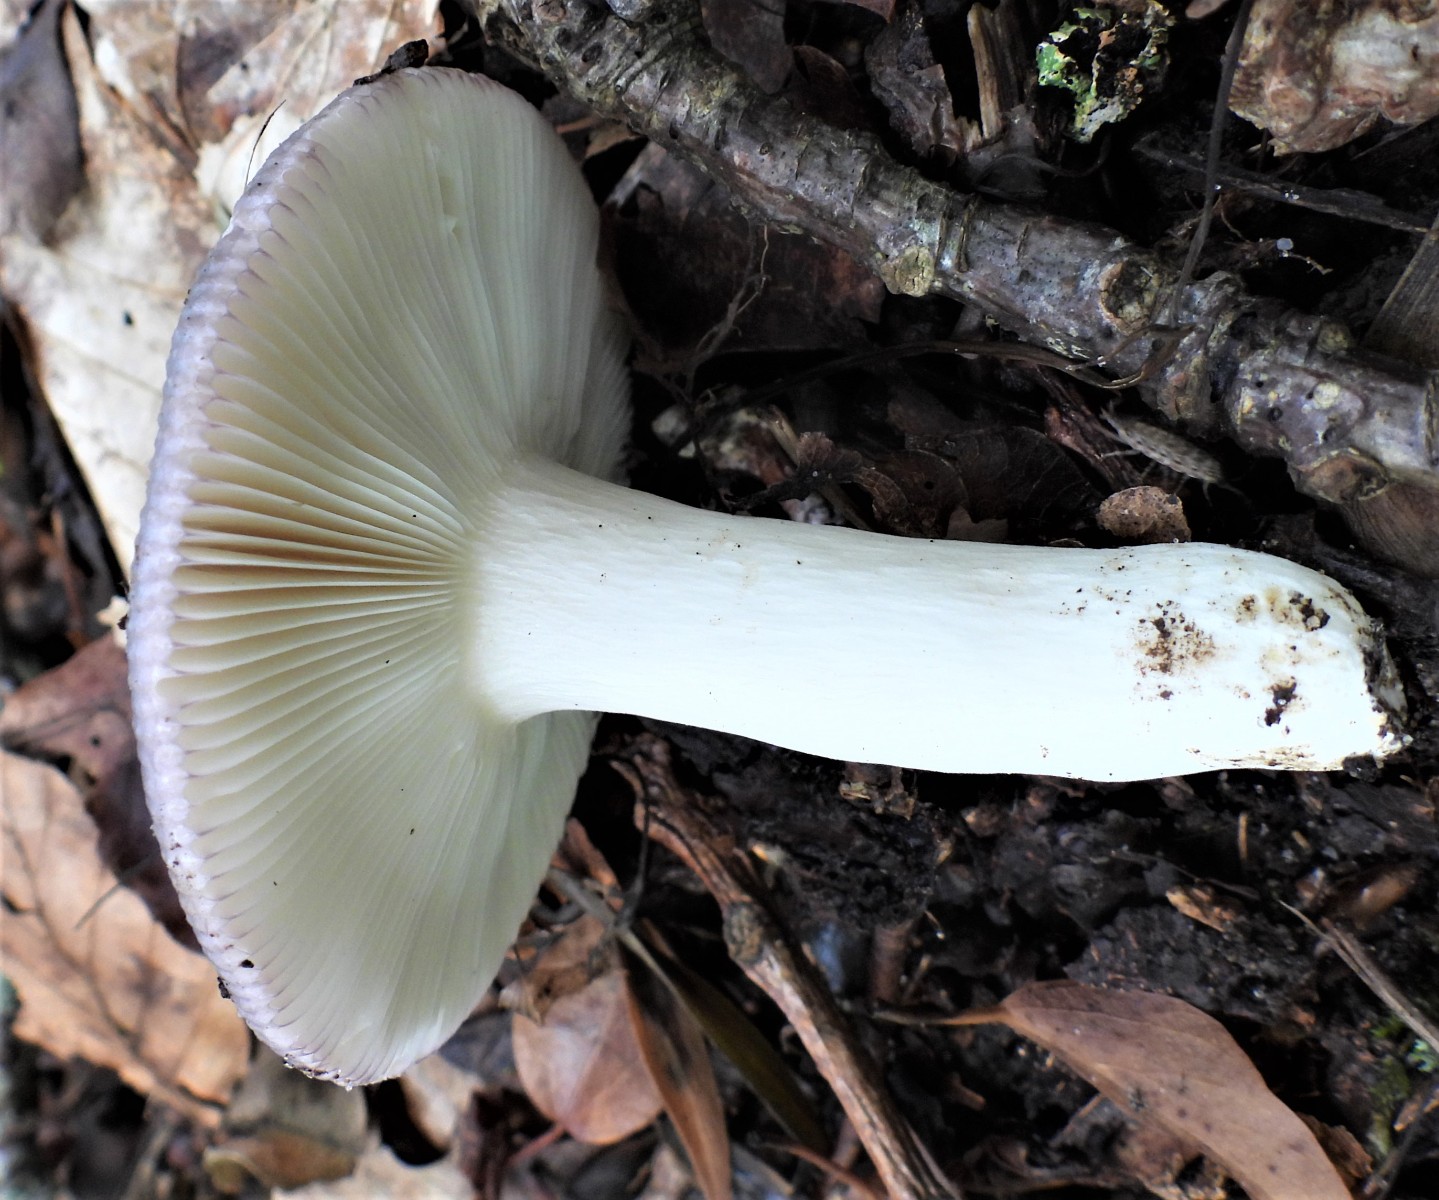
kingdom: Fungi
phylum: Basidiomycota
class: Agaricomycetes
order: Russulales
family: Russulaceae
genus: Russula
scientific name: Russula parazurea
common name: blågrå skørhat
